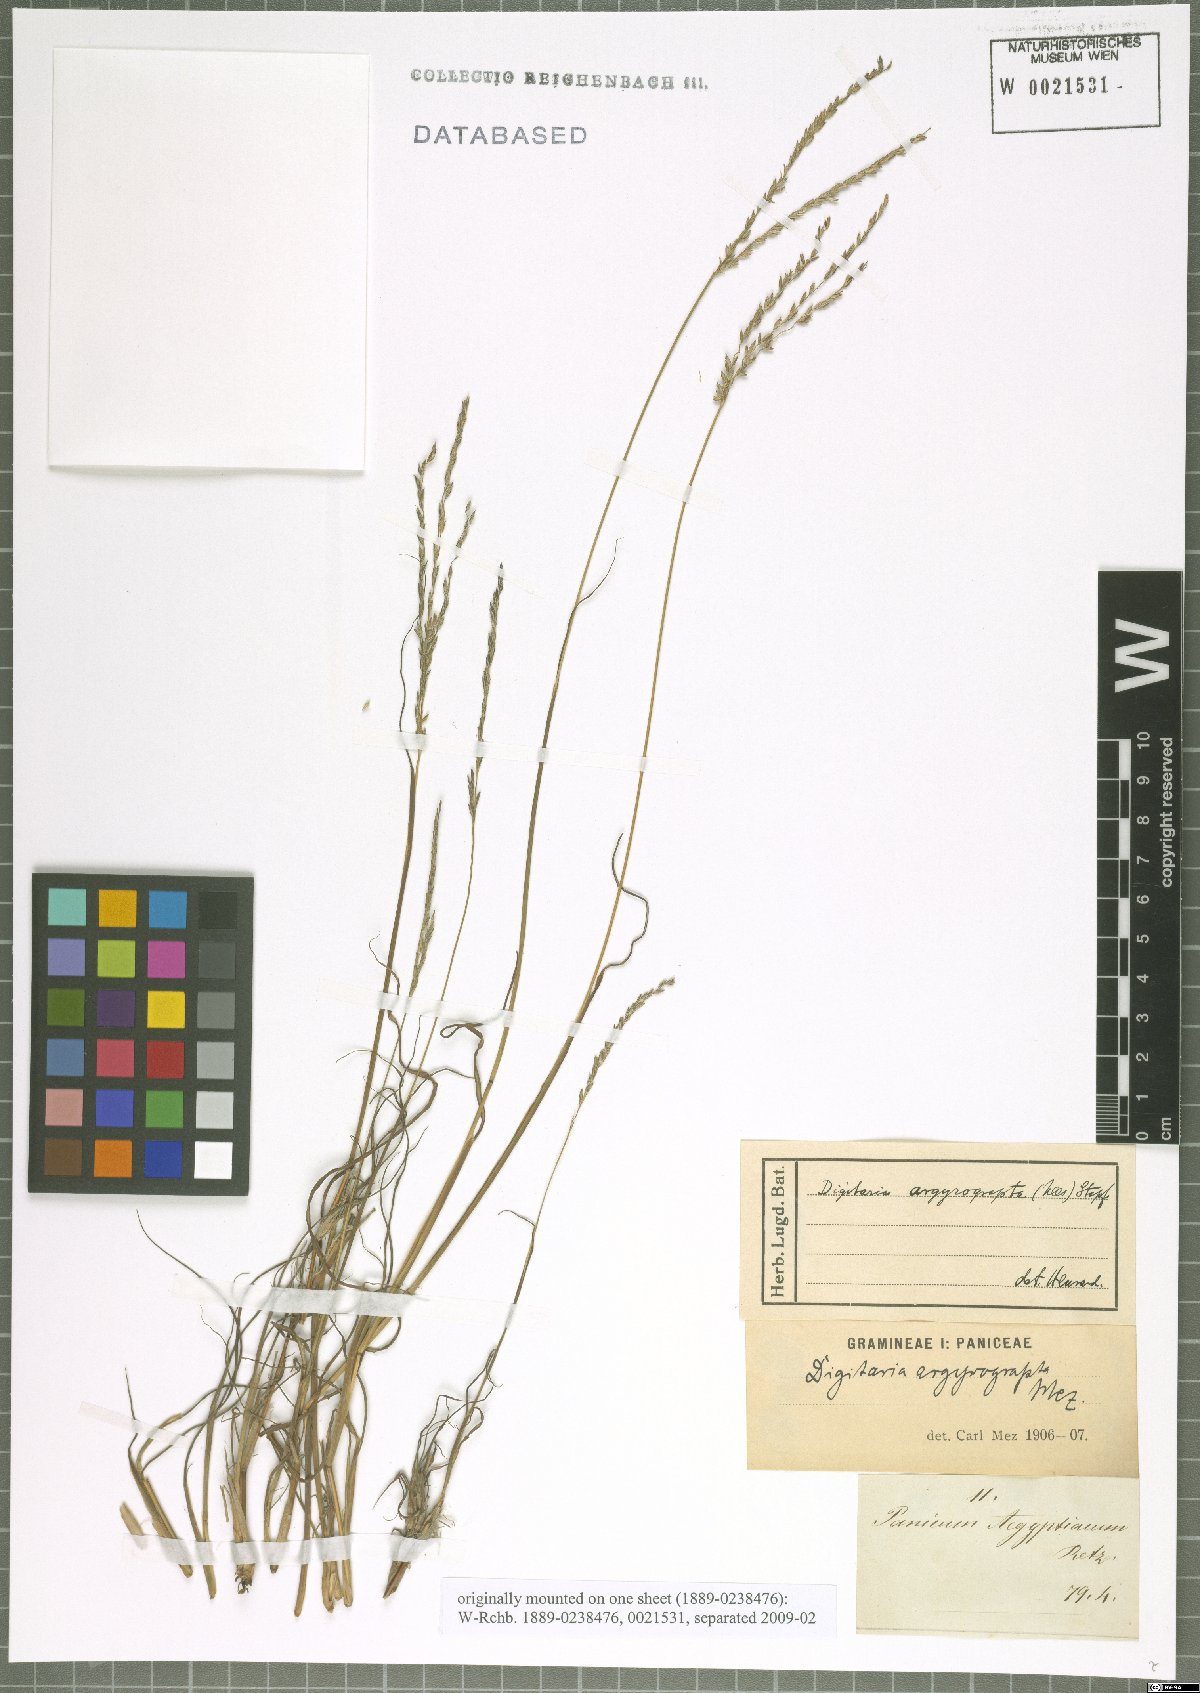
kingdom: Plantae
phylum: Tracheophyta
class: Liliopsida
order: Poales
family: Poaceae
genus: Digitaria
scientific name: Digitaria argyrograpta
